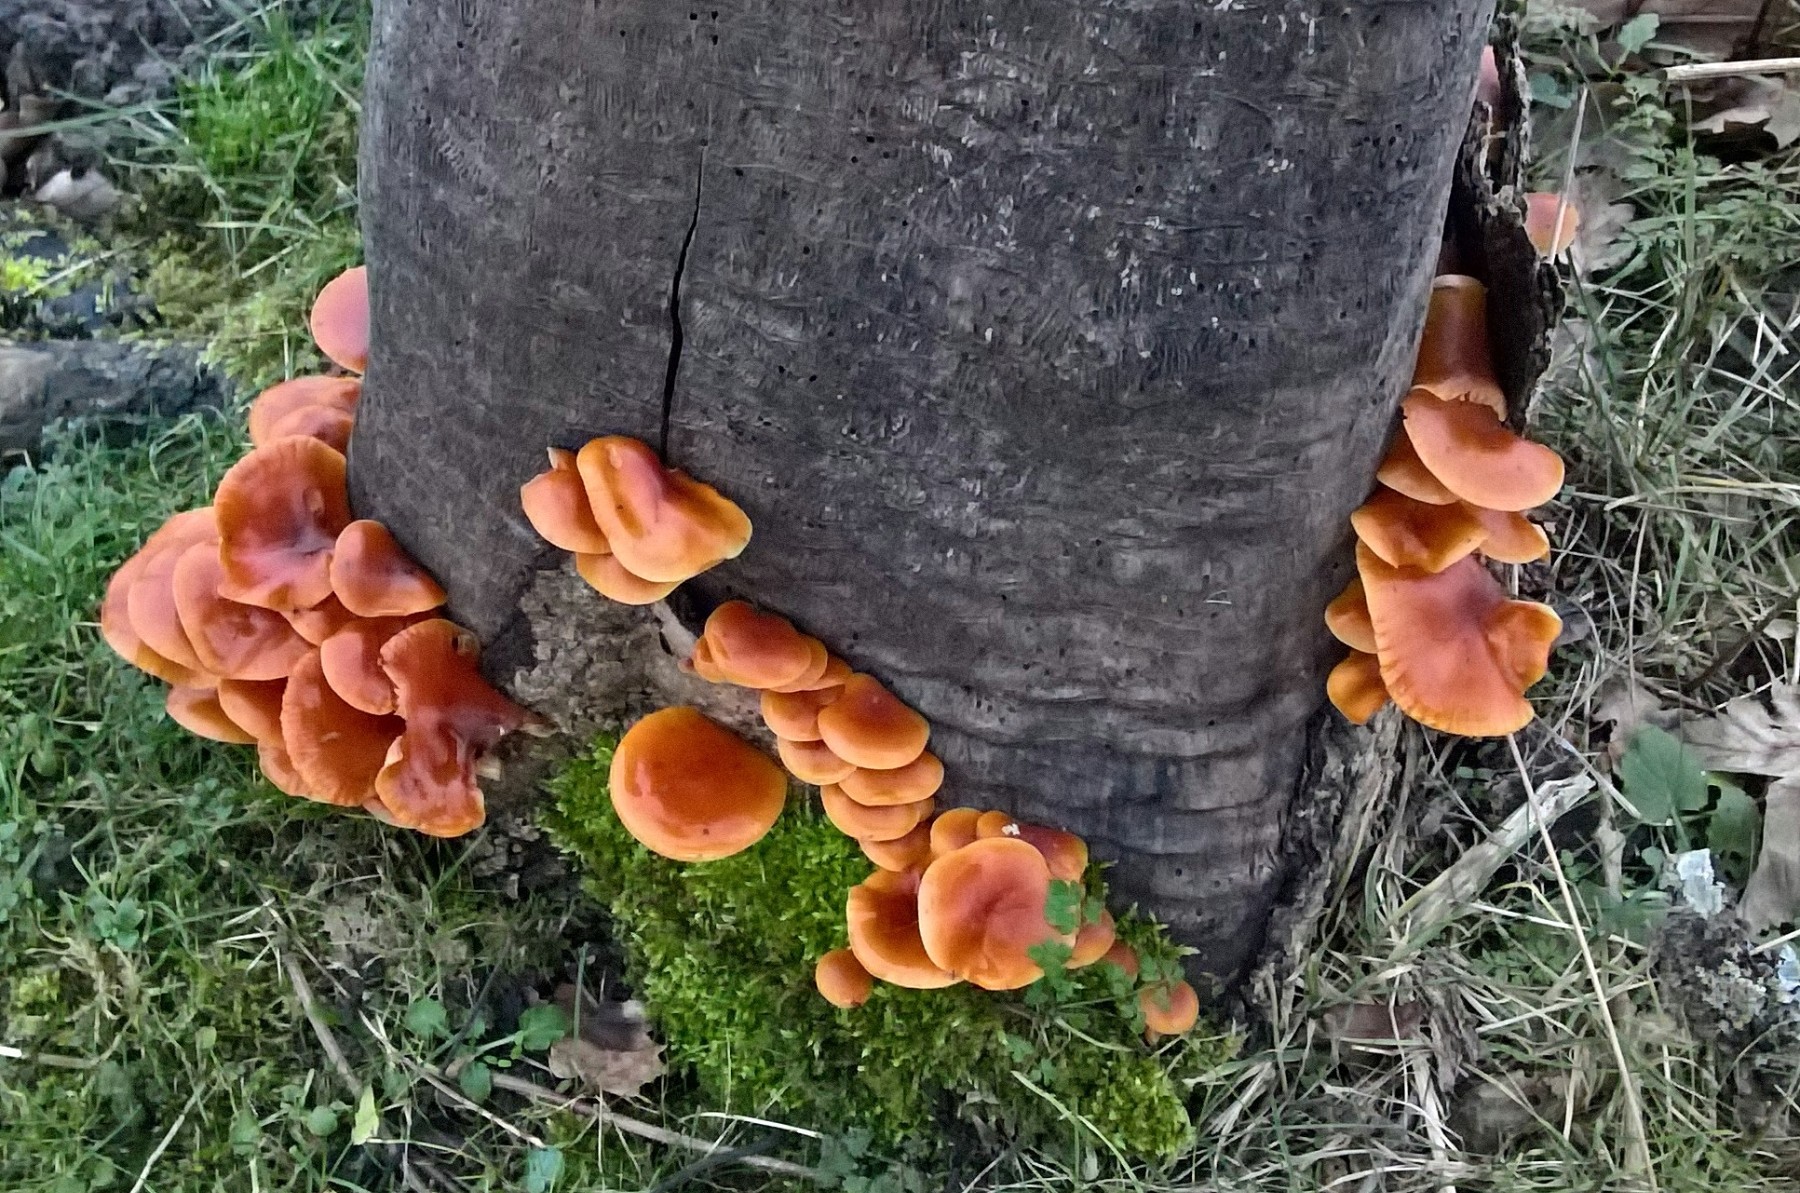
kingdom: Fungi
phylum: Basidiomycota
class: Agaricomycetes
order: Agaricales
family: Physalacriaceae
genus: Flammulina
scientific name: Flammulina velutipes
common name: gul fløjlsfod
